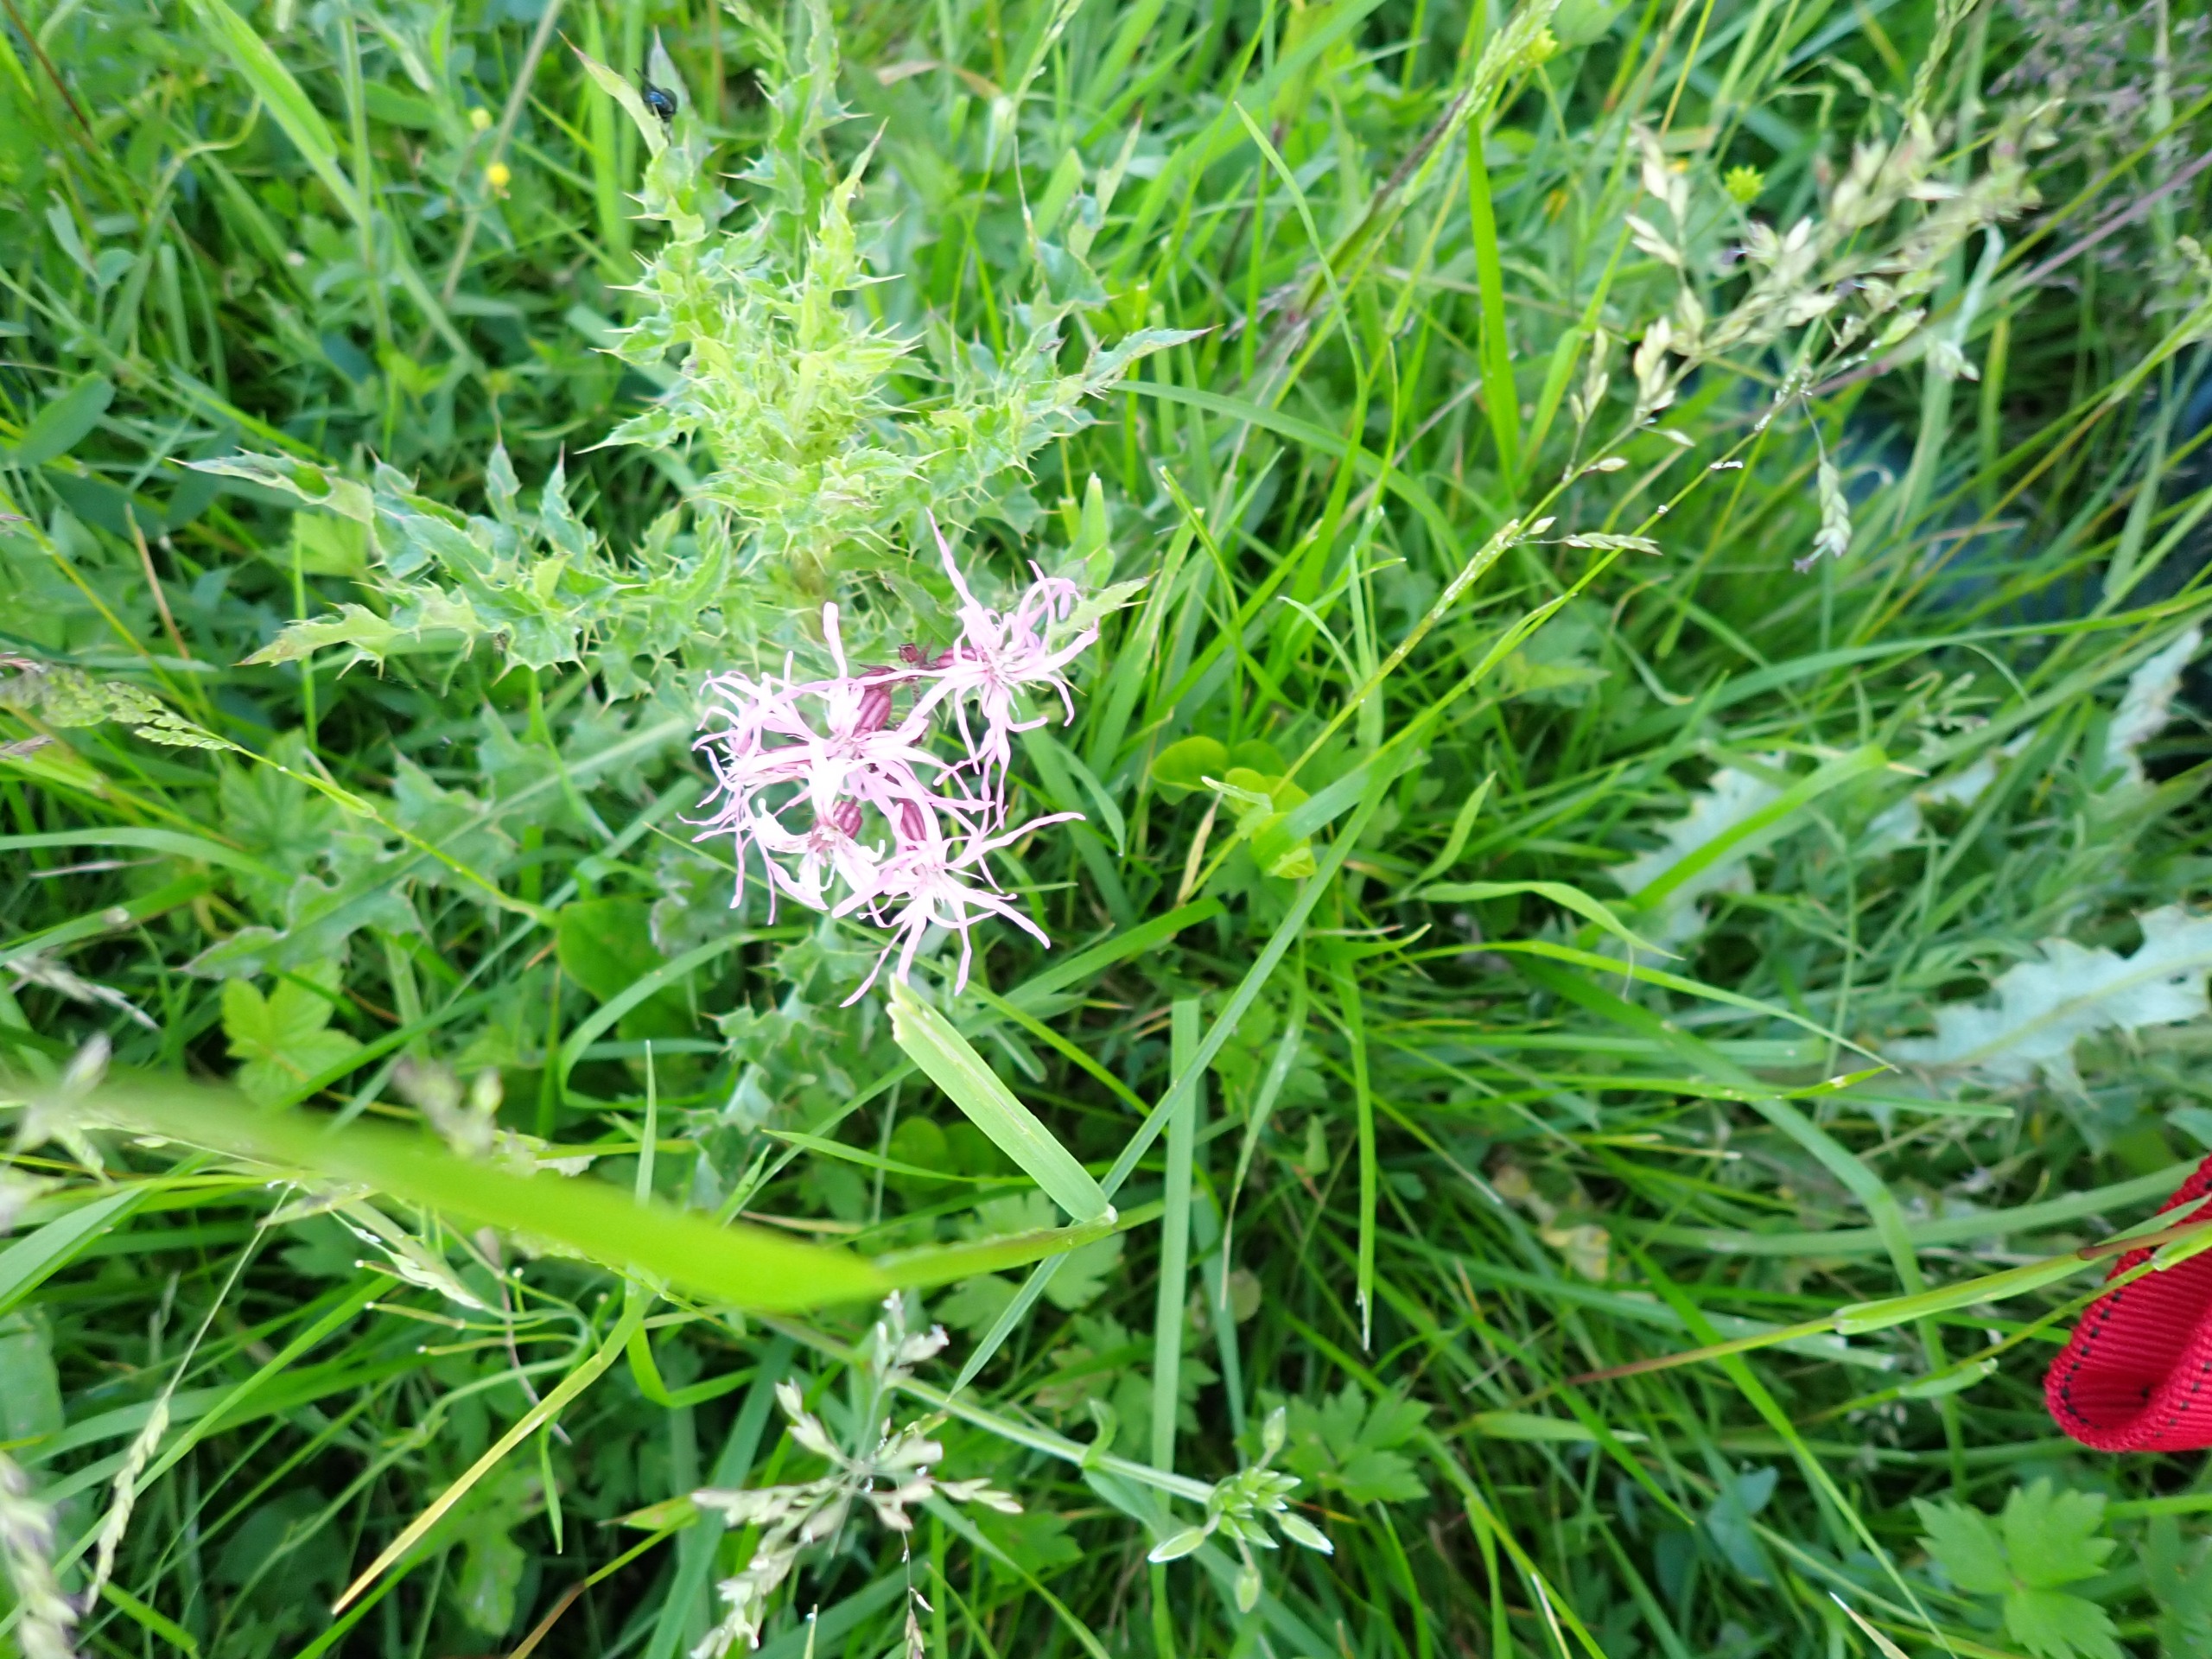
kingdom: Plantae
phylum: Tracheophyta
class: Magnoliopsida
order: Caryophyllales
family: Caryophyllaceae
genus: Silene
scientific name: Silene flos-cuculi
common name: Trævlekrone
